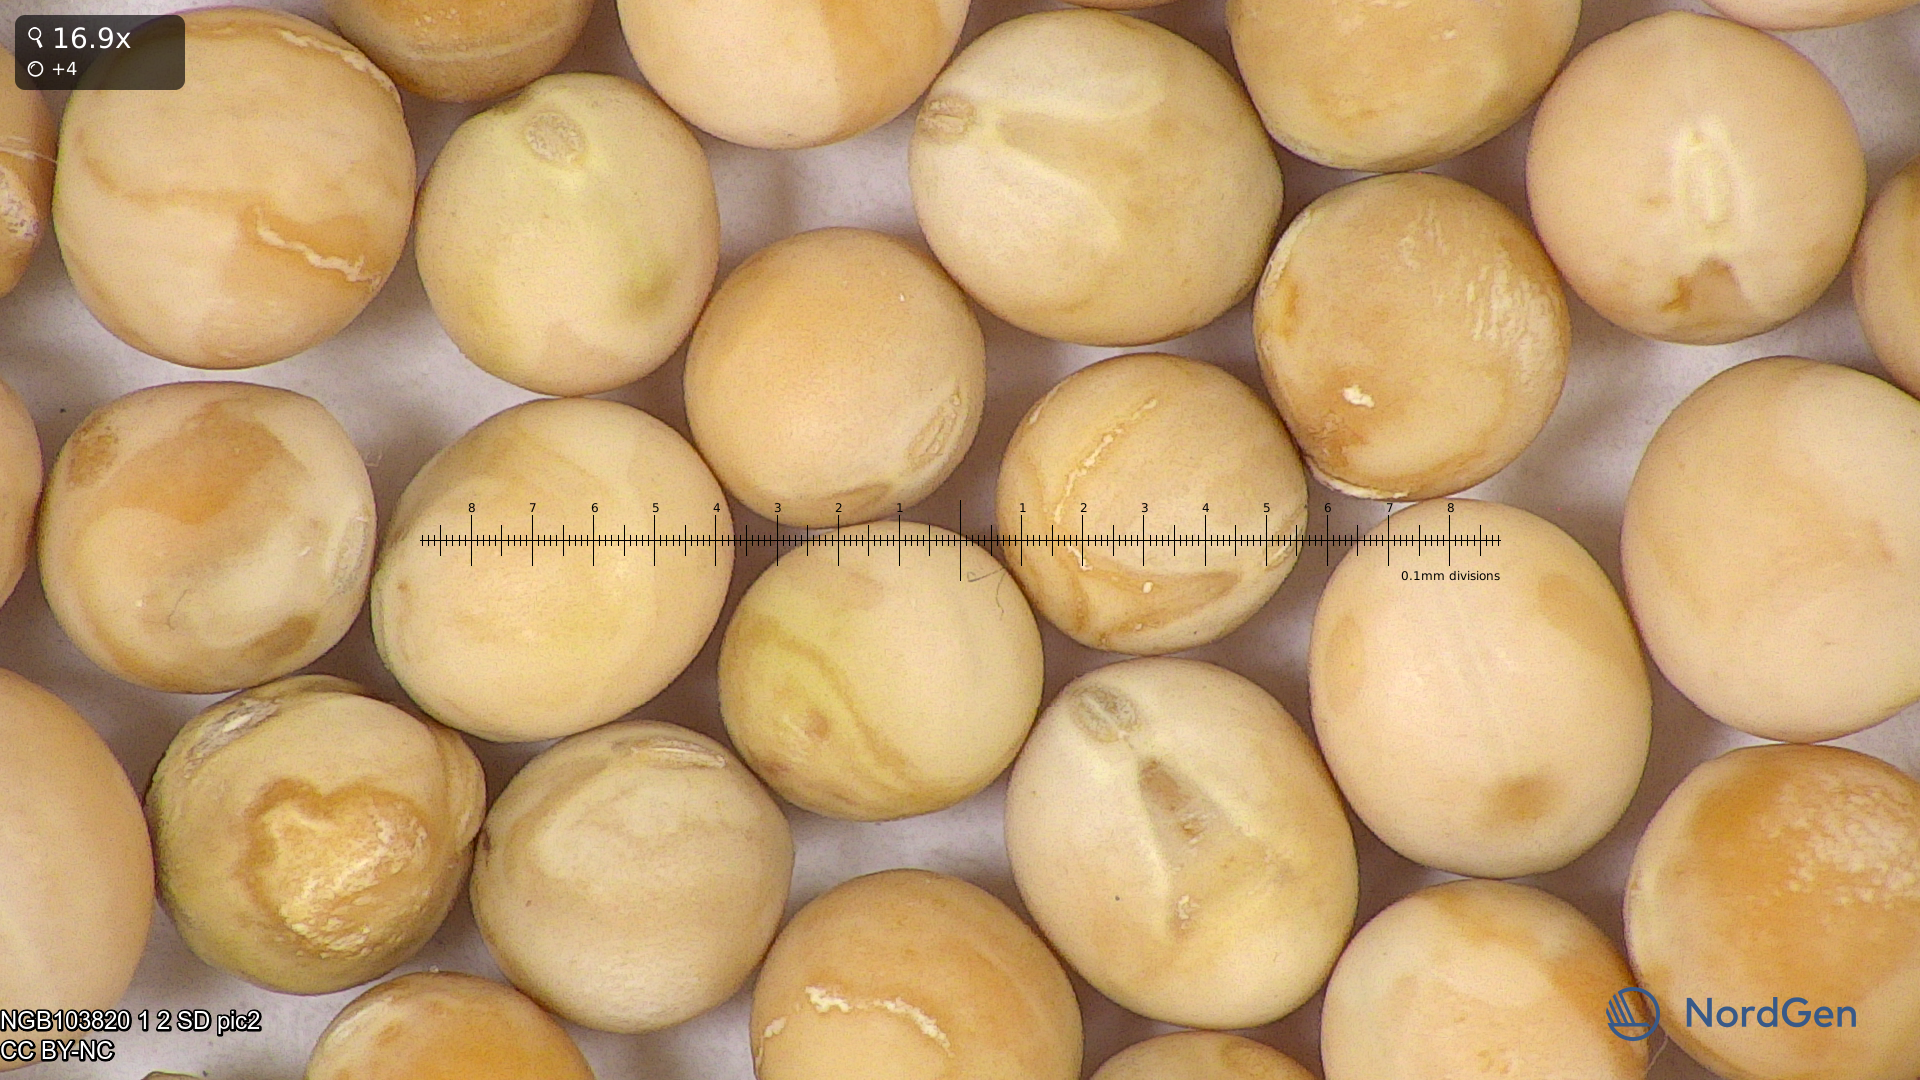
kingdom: Plantae
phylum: Tracheophyta
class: Magnoliopsida
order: Fabales
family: Fabaceae
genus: Lathyrus
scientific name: Lathyrus oleraceus
